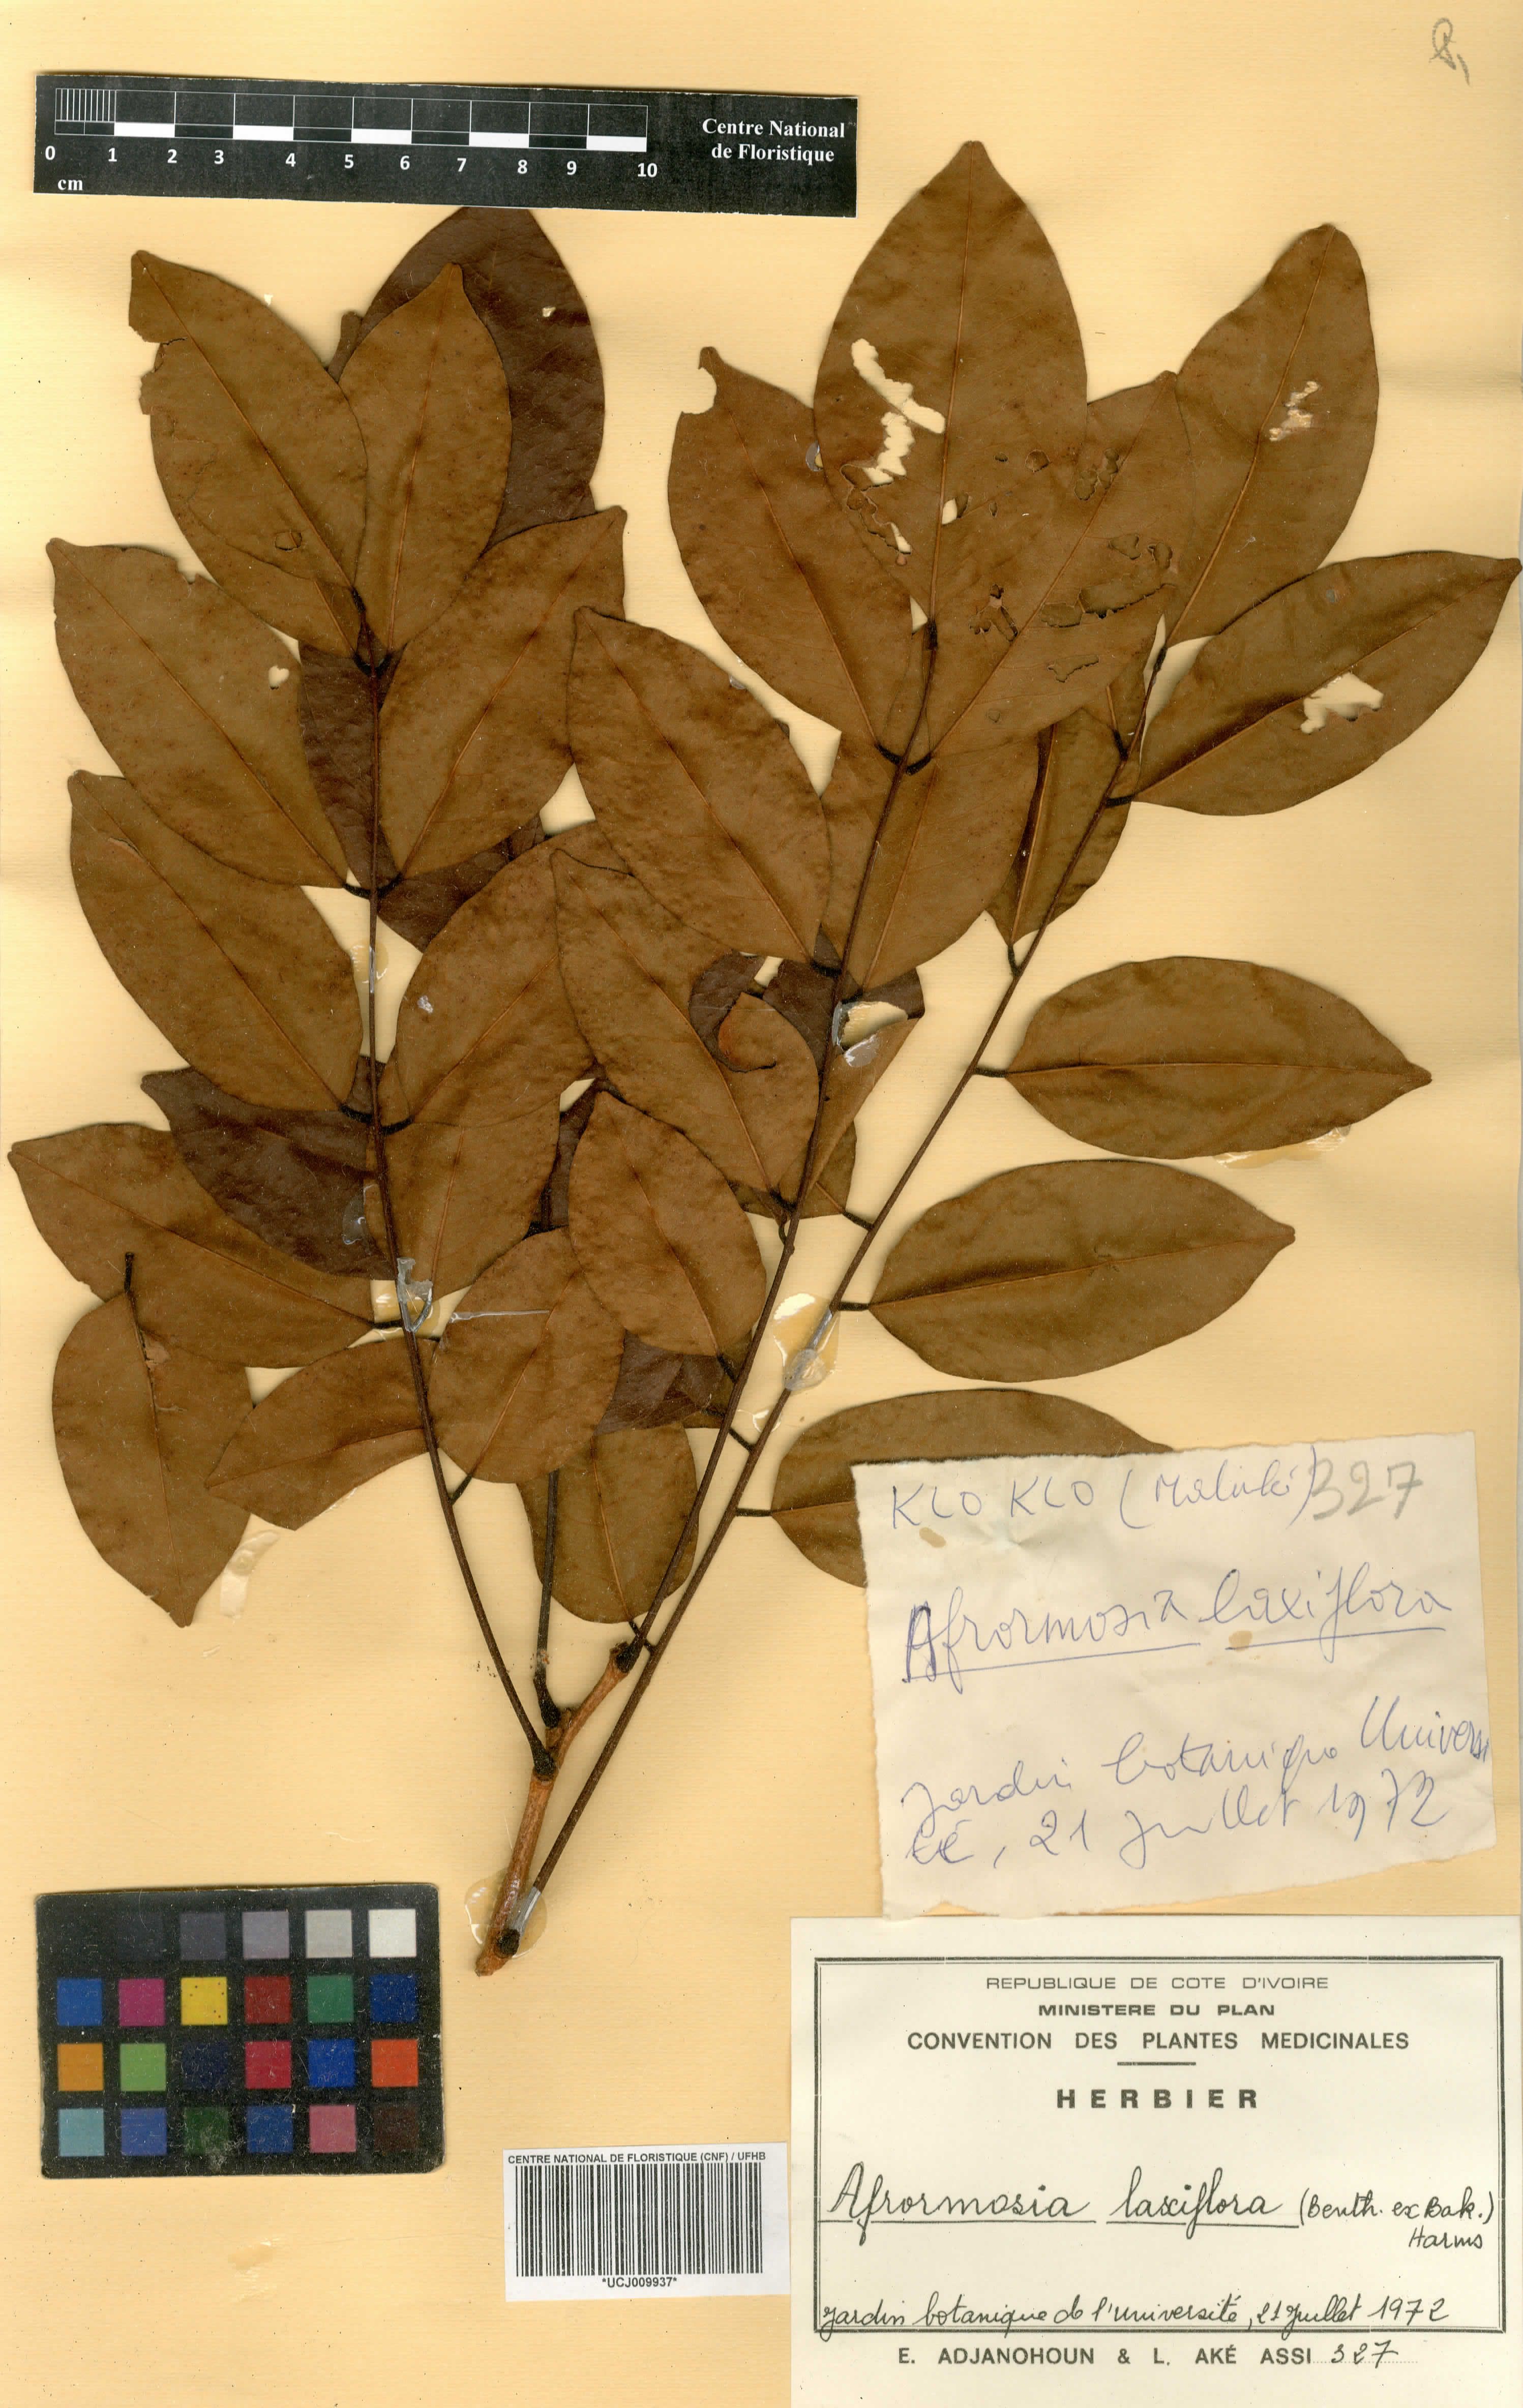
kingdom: Plantae
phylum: Tracheophyta
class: Magnoliopsida
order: Fabales
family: Fabaceae
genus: Pericopsis
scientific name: Pericopsis laxiflora
